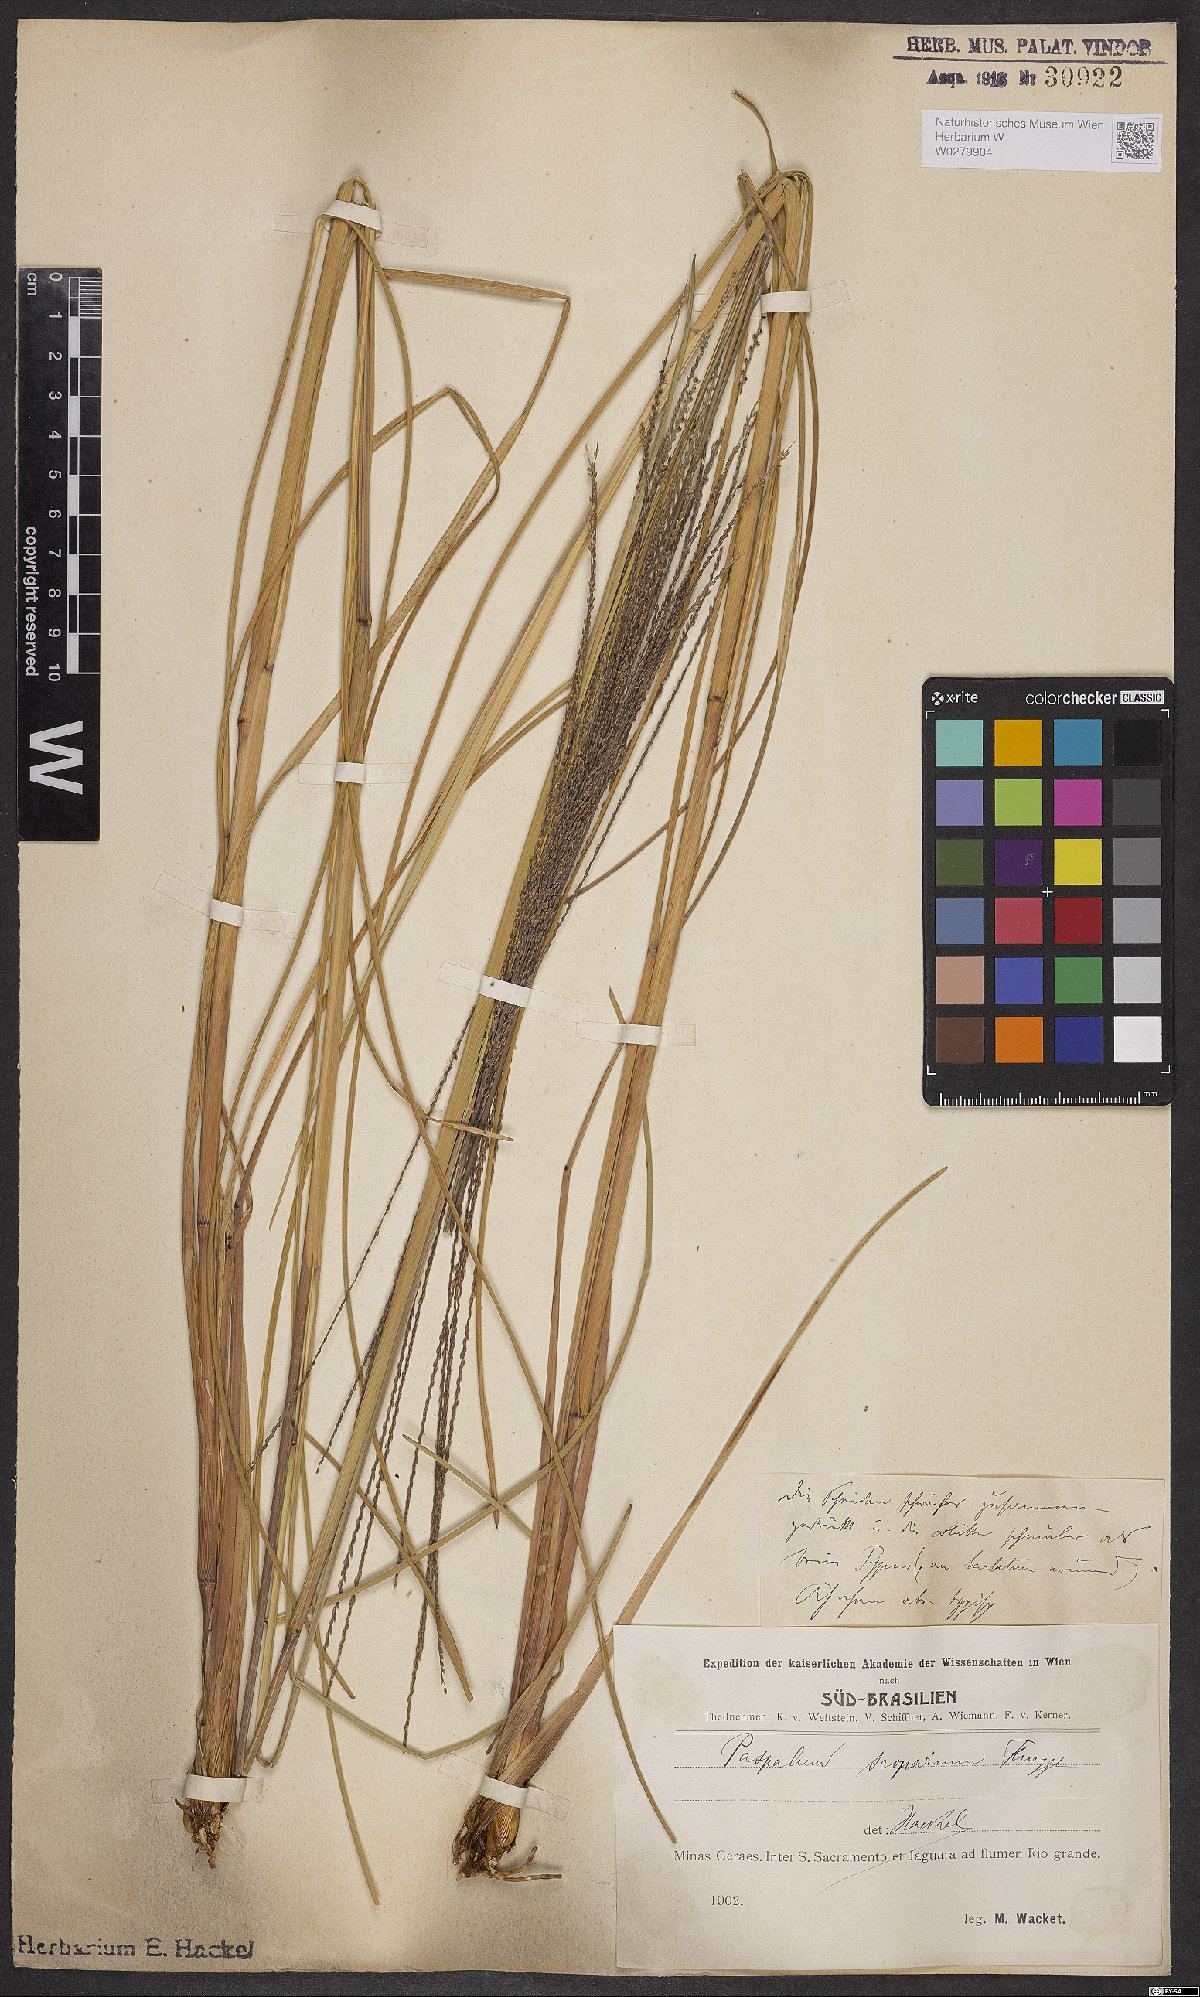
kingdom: Plantae
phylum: Tracheophyta
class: Liliopsida
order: Poales
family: Poaceae
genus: Axonopus
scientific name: Axonopus scoparius
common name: Imperial grass
